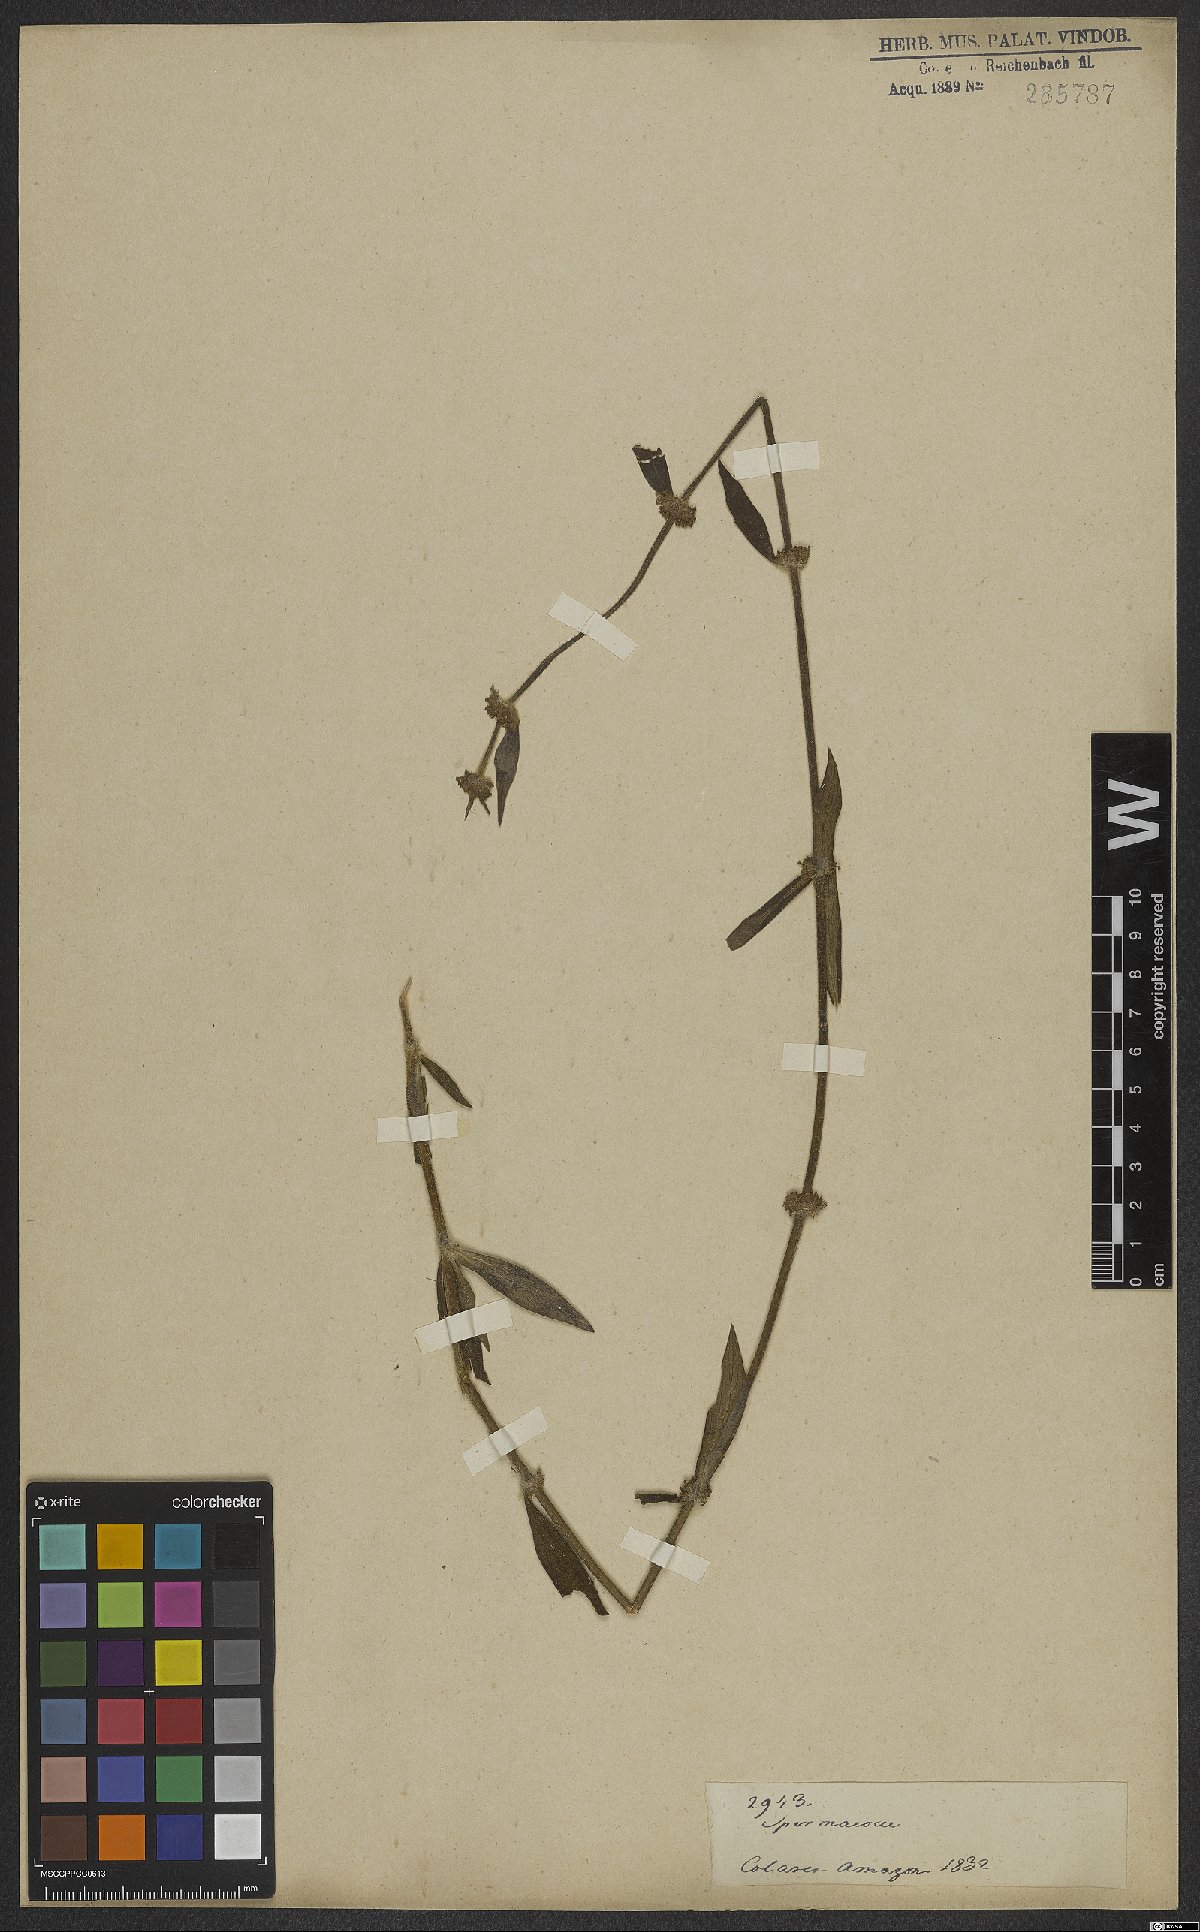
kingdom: Plantae
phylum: Tracheophyta
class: Magnoliopsida
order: Gentianales
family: Rubiaceae
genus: Spermacoce
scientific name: Spermacoce
